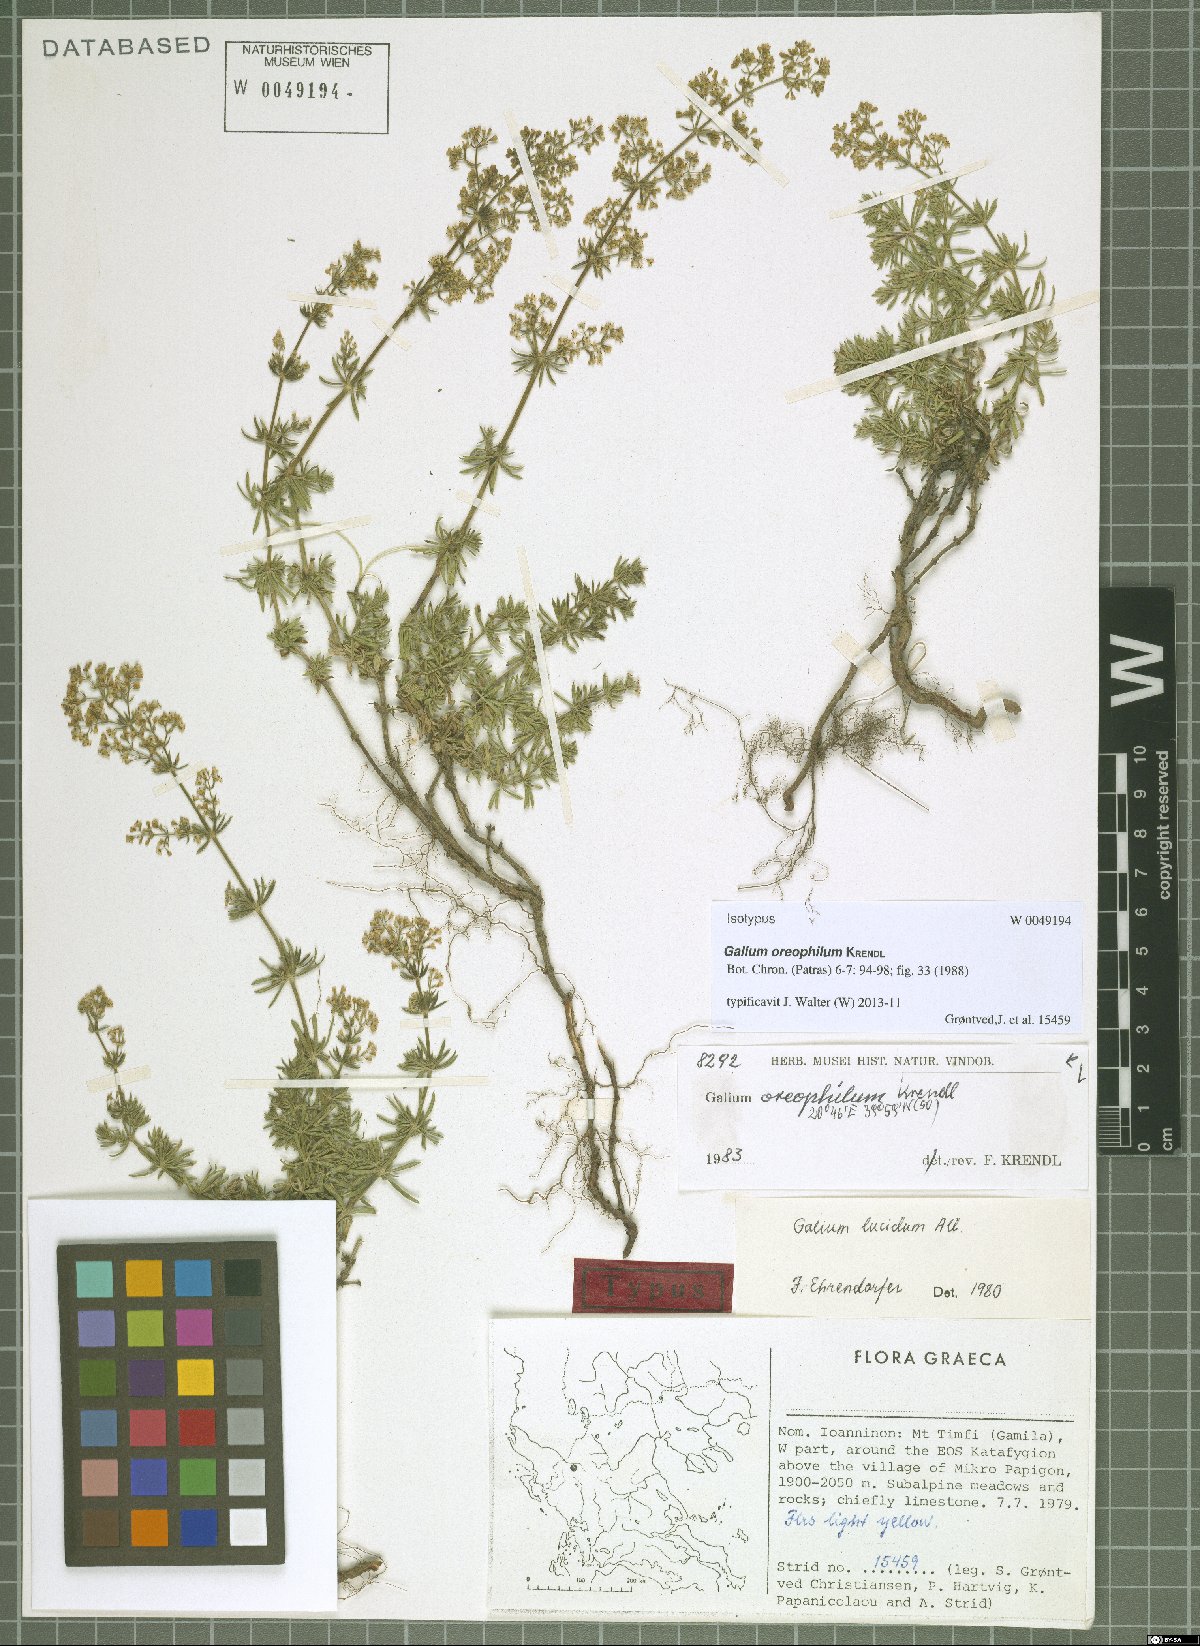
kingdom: Plantae
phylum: Tracheophyta
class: Magnoliopsida
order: Gentianales
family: Rubiaceae
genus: Galium
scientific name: Galium oreophilum
